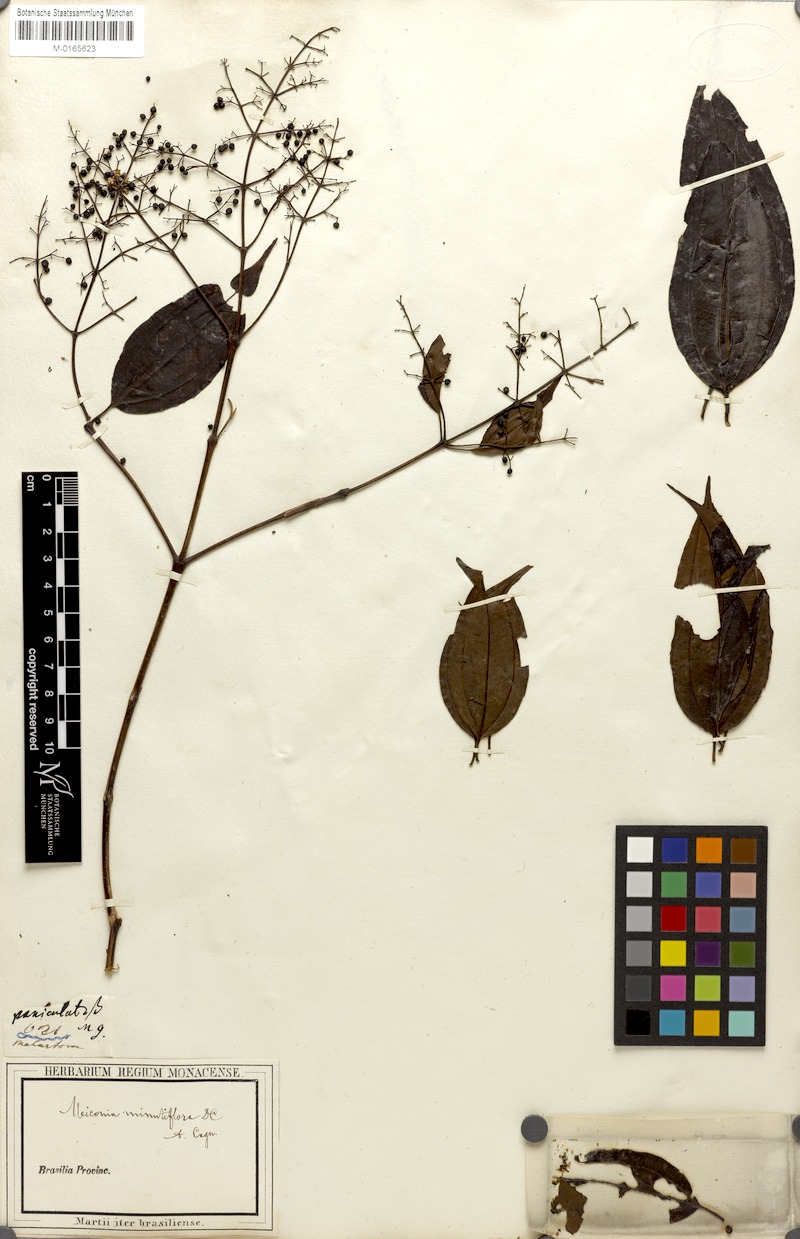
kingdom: Plantae
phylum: Tracheophyta
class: Magnoliopsida
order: Myrtales
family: Melastomataceae
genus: Miconia
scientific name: Miconia minutiflora
